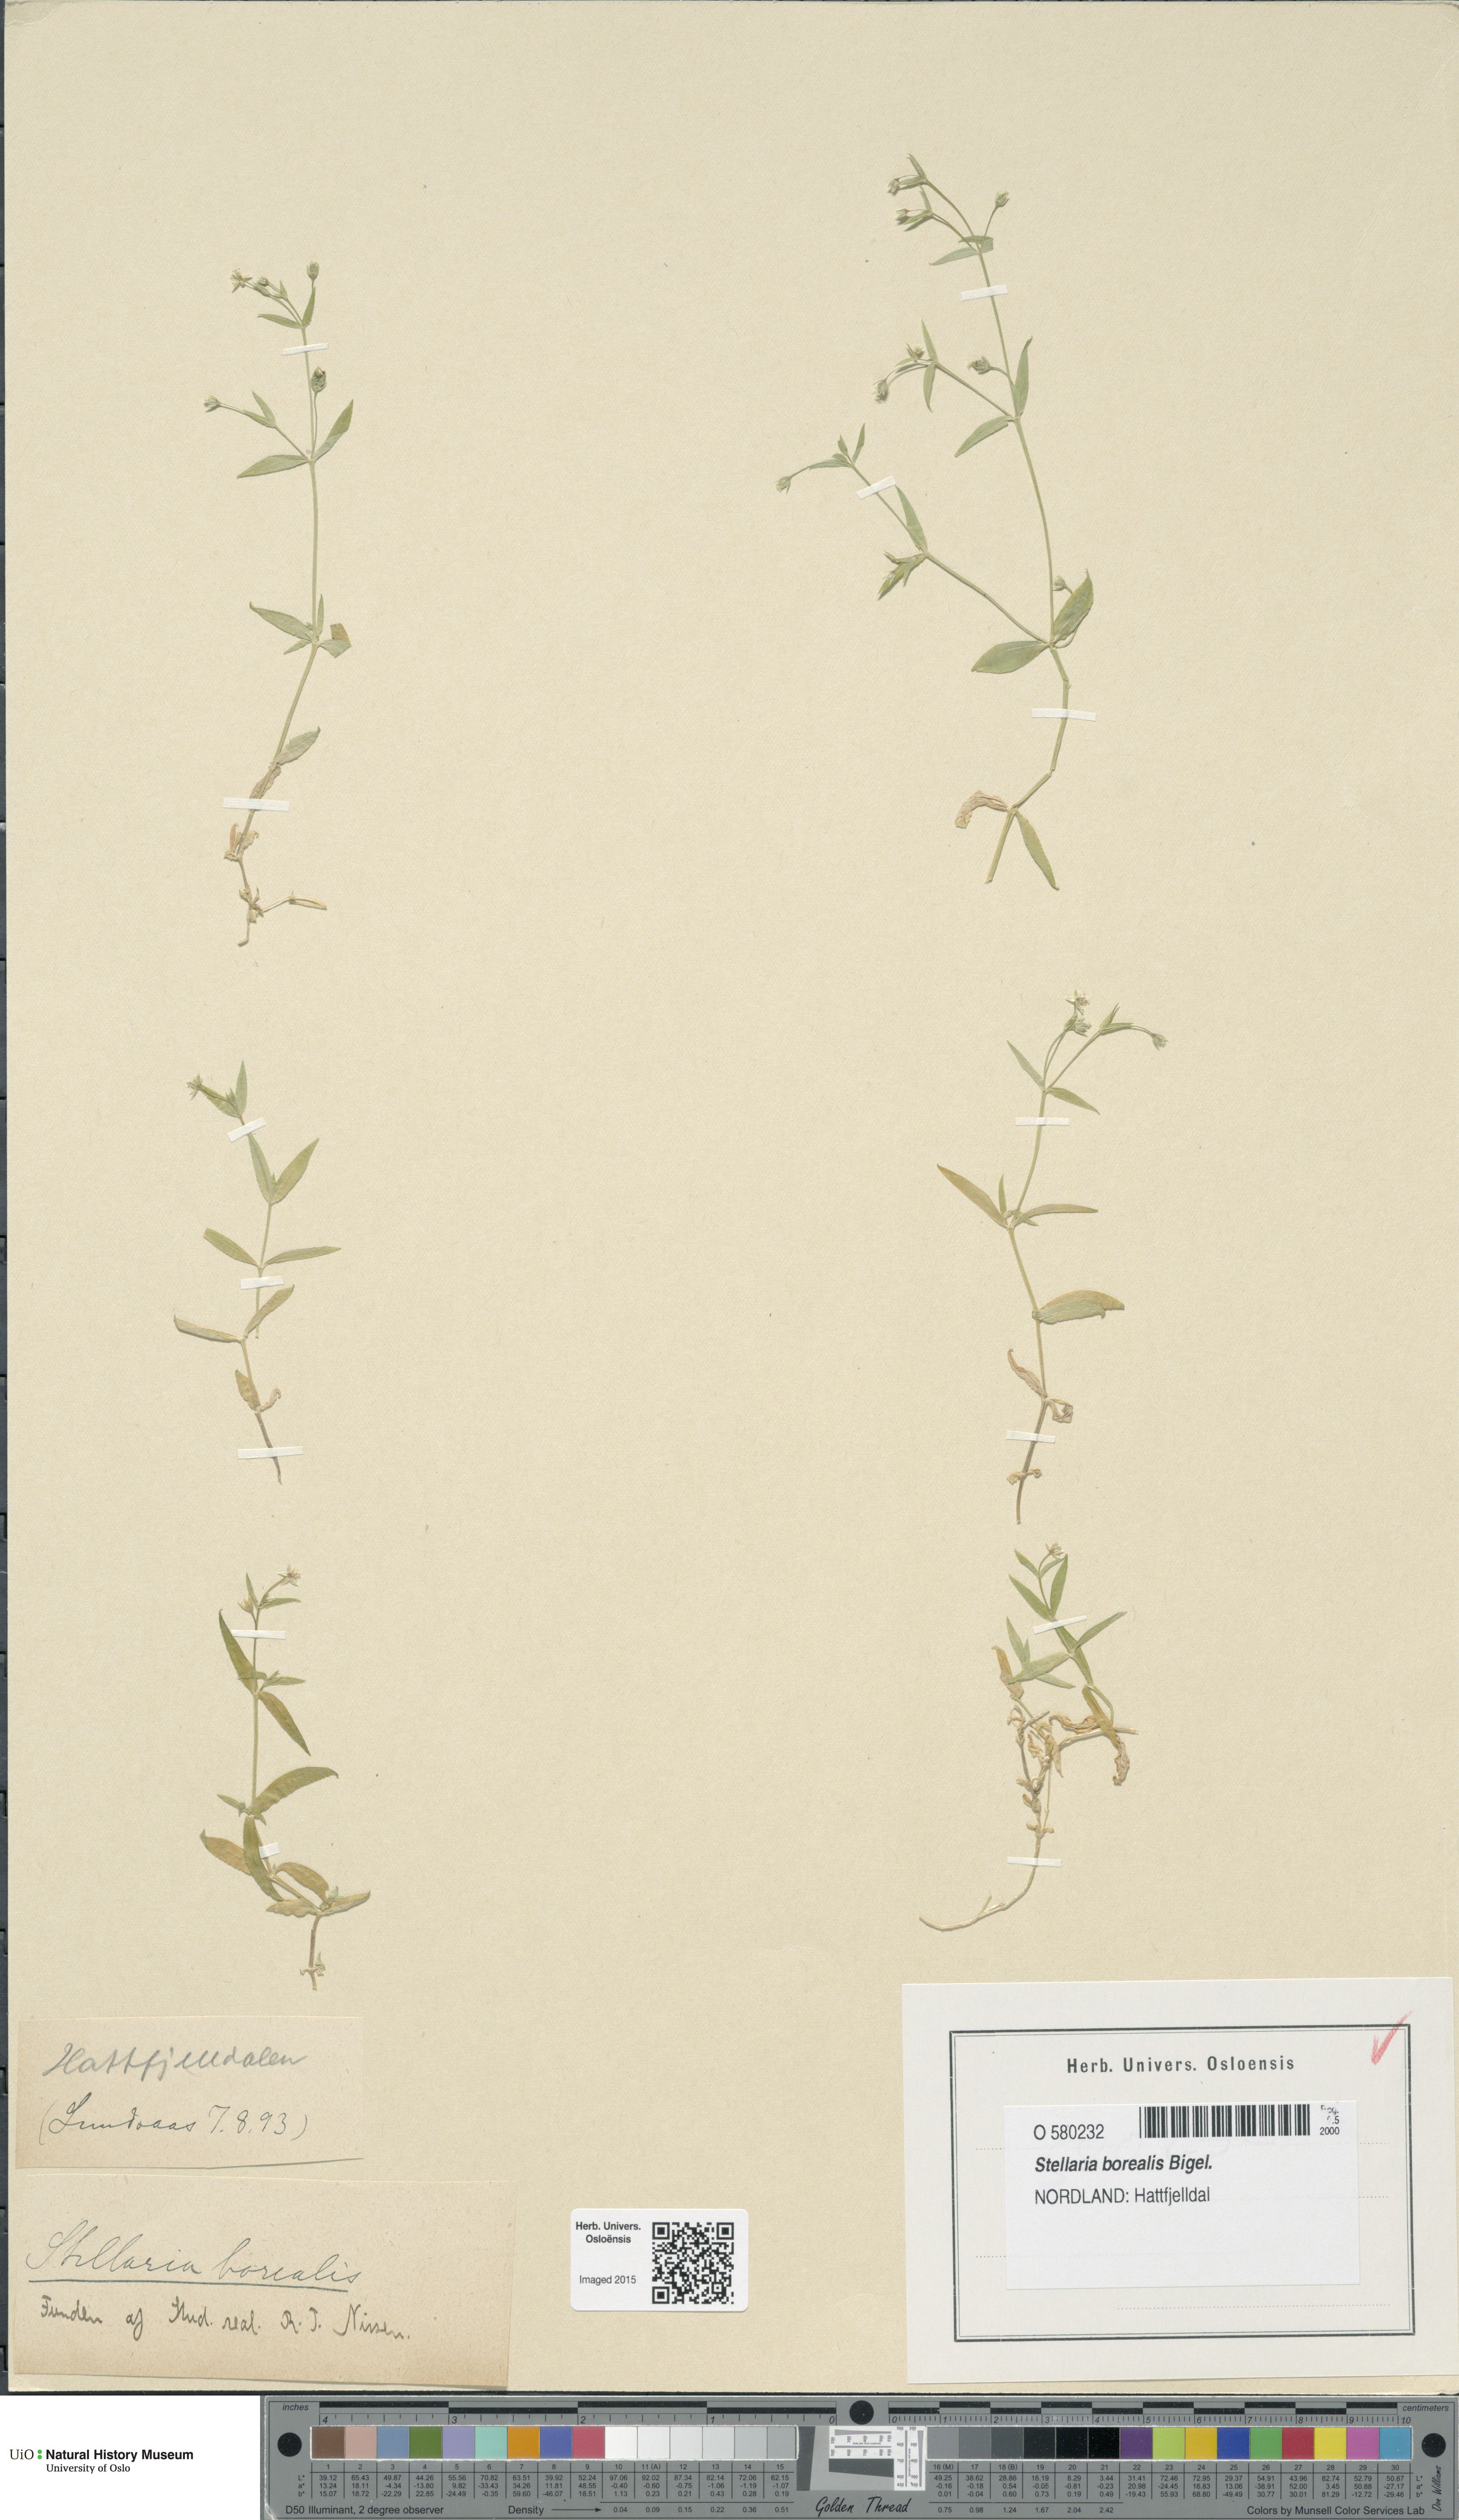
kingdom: Plantae
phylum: Tracheophyta
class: Magnoliopsida
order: Caryophyllales
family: Caryophyllaceae
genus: Stellaria
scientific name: Stellaria borealis
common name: Boreal starwort
